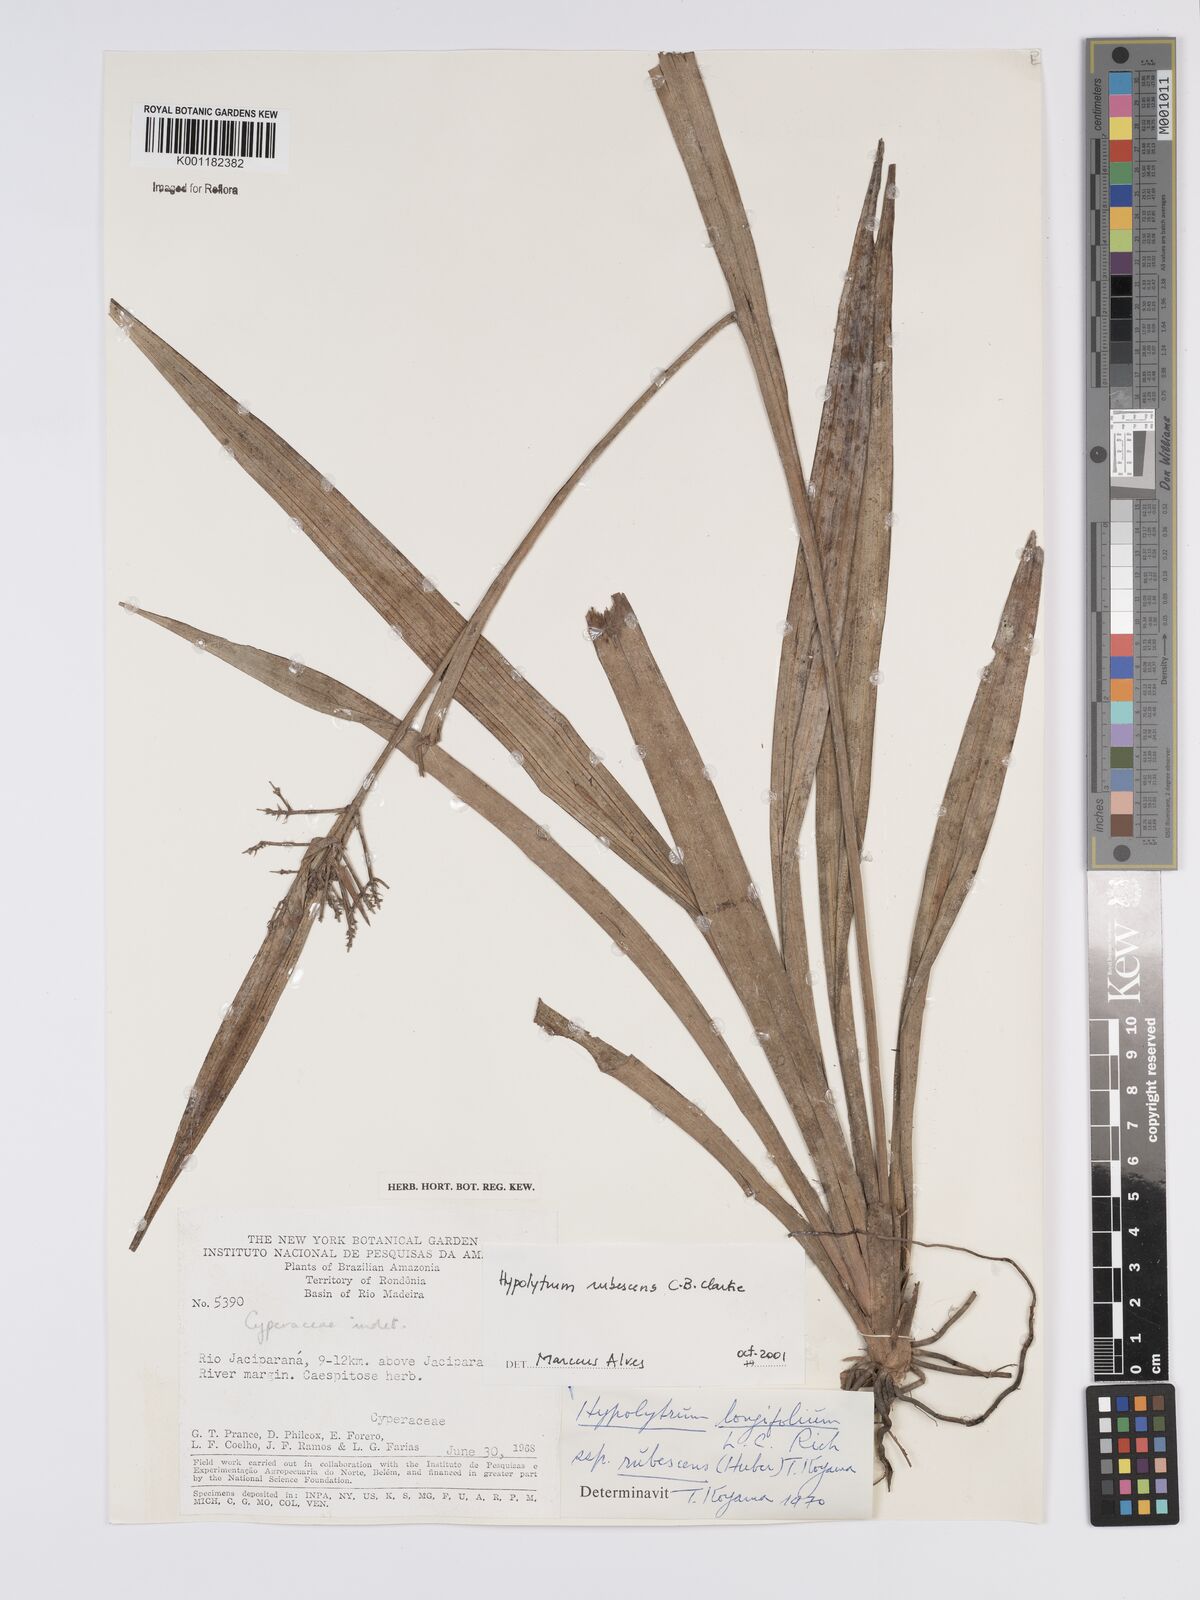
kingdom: Plantae
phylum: Tracheophyta
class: Liliopsida
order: Poales
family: Cyperaceae
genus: Hypolytrum
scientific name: Hypolytrum longifolium
